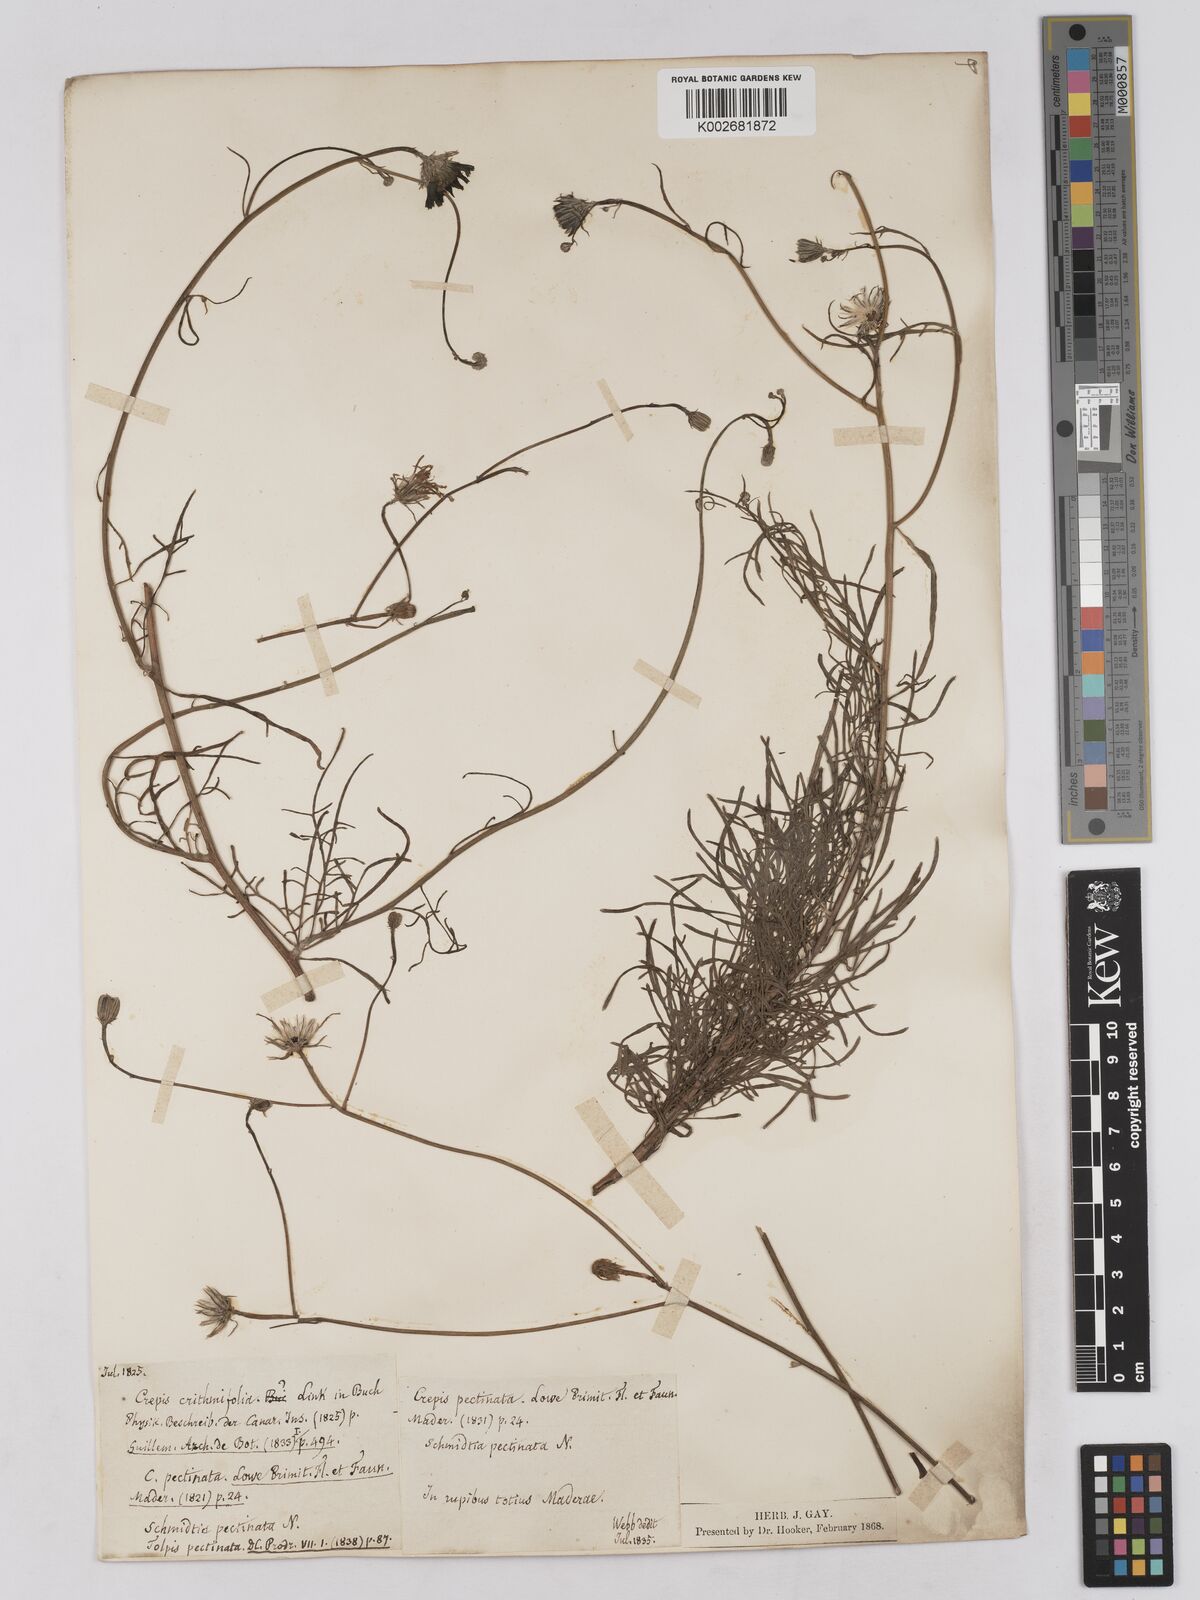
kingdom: Plantae
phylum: Tracheophyta
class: Magnoliopsida
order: Asterales
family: Asteraceae
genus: Tolpis
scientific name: Tolpis succulenta
